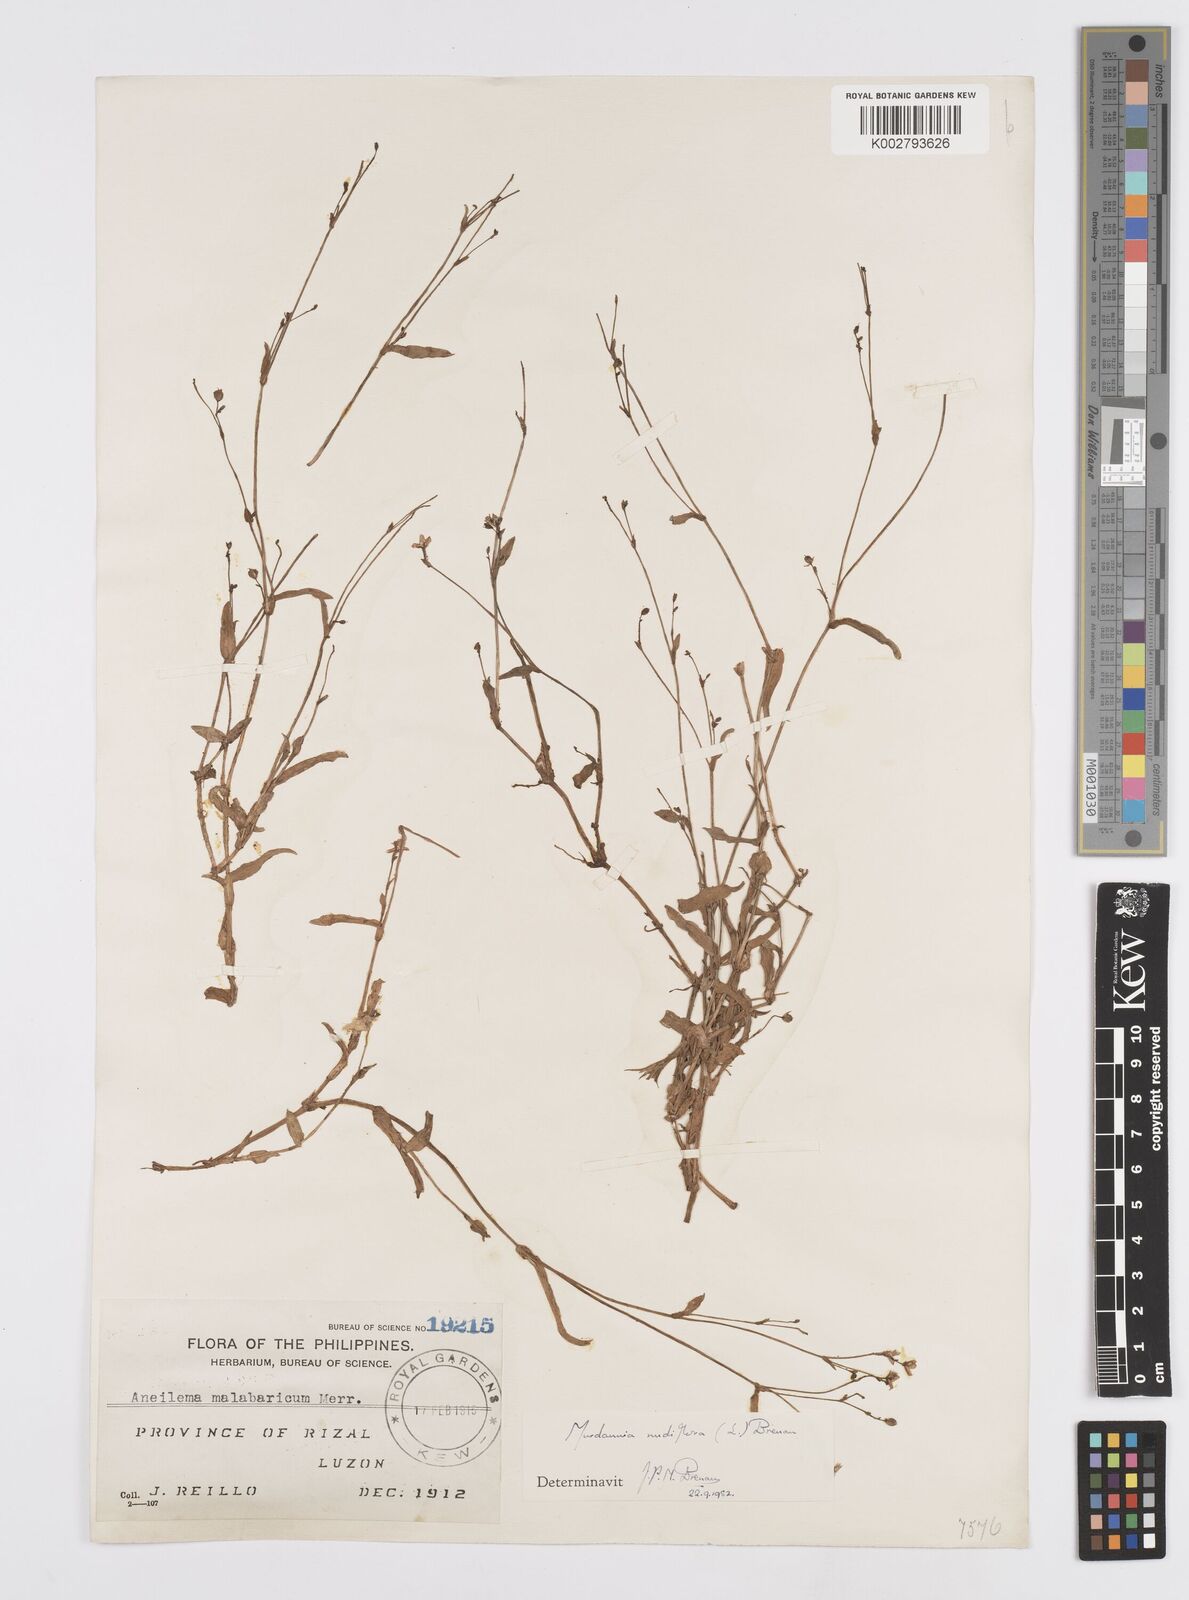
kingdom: Plantae
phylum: Tracheophyta
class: Liliopsida
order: Commelinales
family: Commelinaceae
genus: Murdannia
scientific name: Murdannia nudiflora
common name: Nakedstem dewflower
